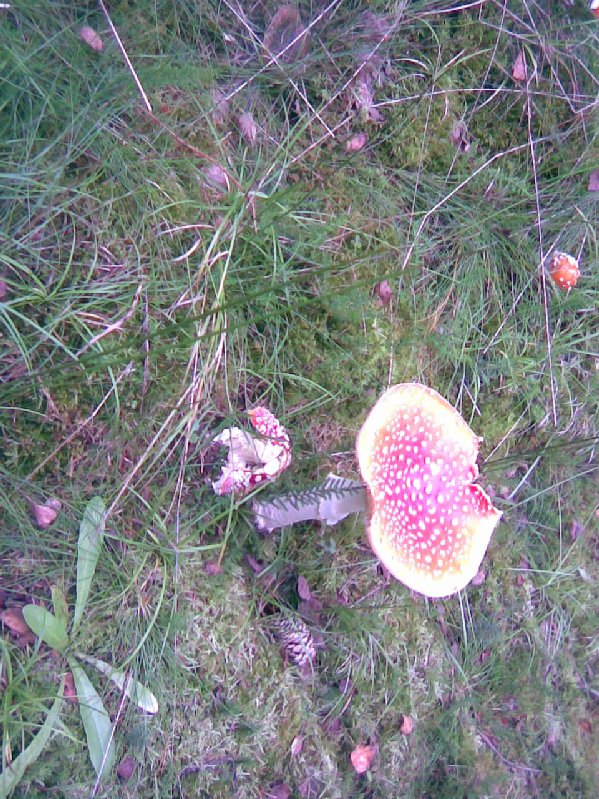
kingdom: Fungi
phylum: Basidiomycota
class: Agaricomycetes
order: Agaricales
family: Amanitaceae
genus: Amanita
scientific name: Amanita muscaria
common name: rød fluesvamp
